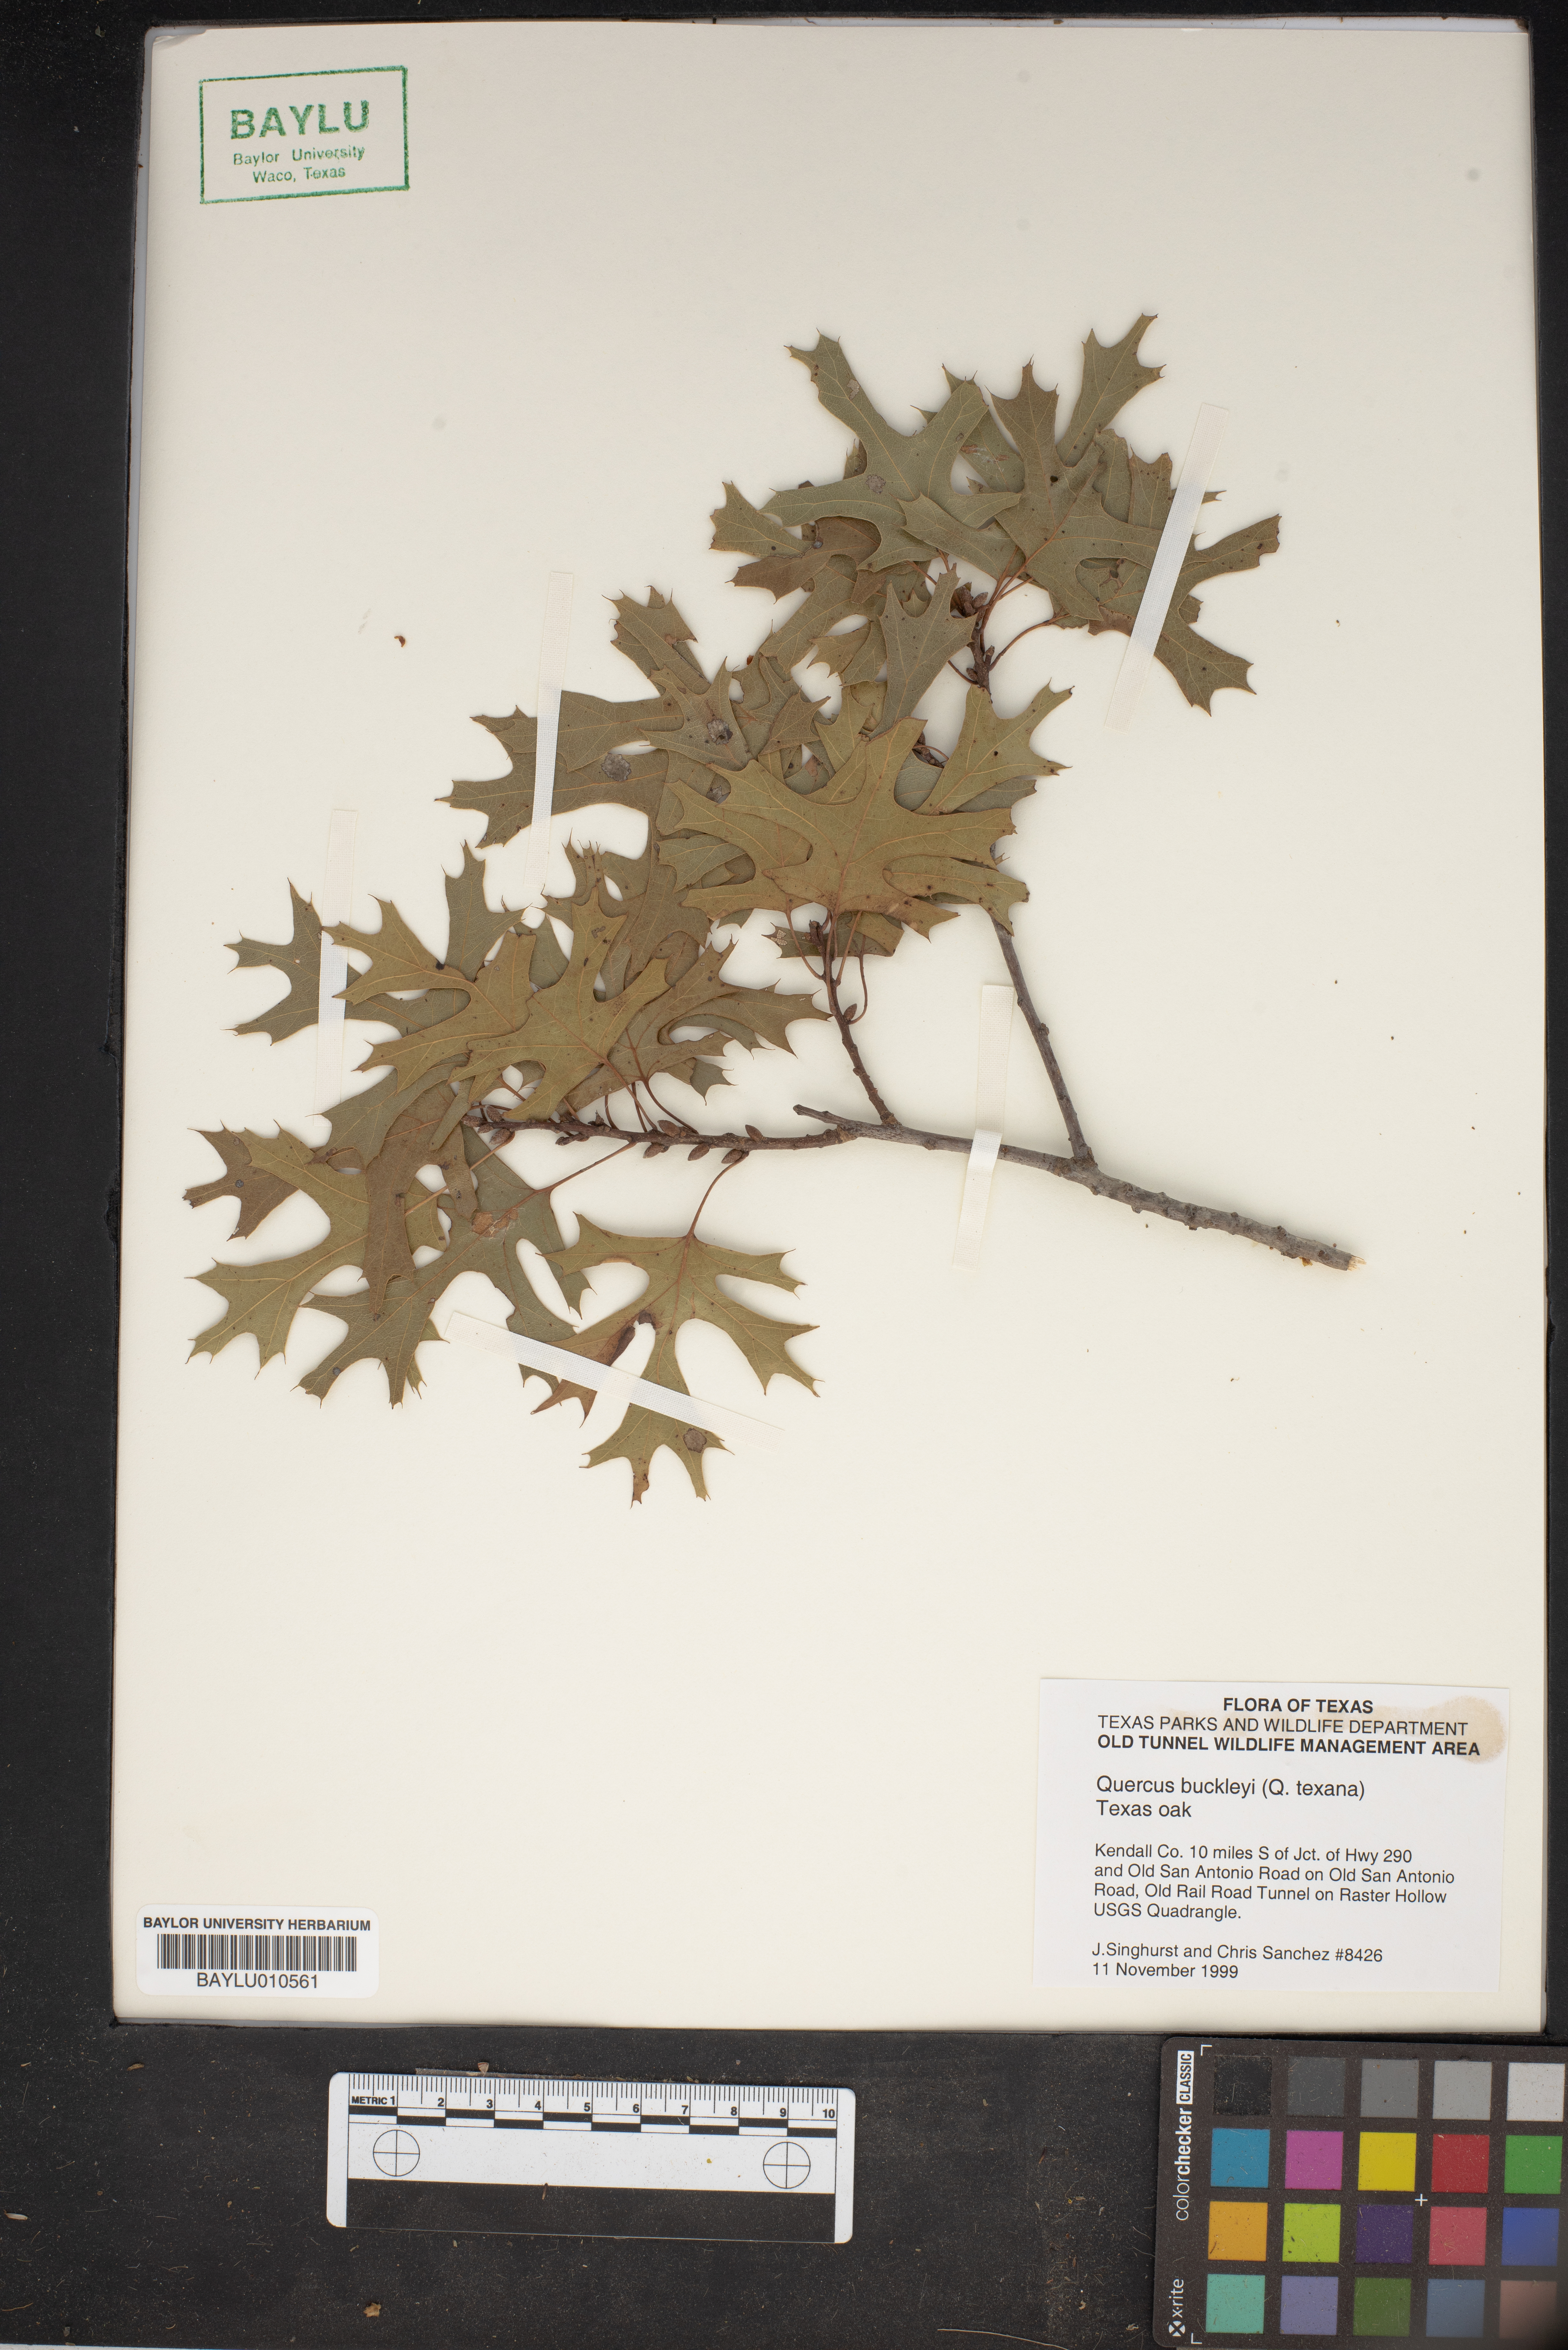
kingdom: Plantae
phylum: Tracheophyta
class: Magnoliopsida
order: Fagales
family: Fagaceae
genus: Quercus
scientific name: Quercus buckleyi
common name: Buckley oak
